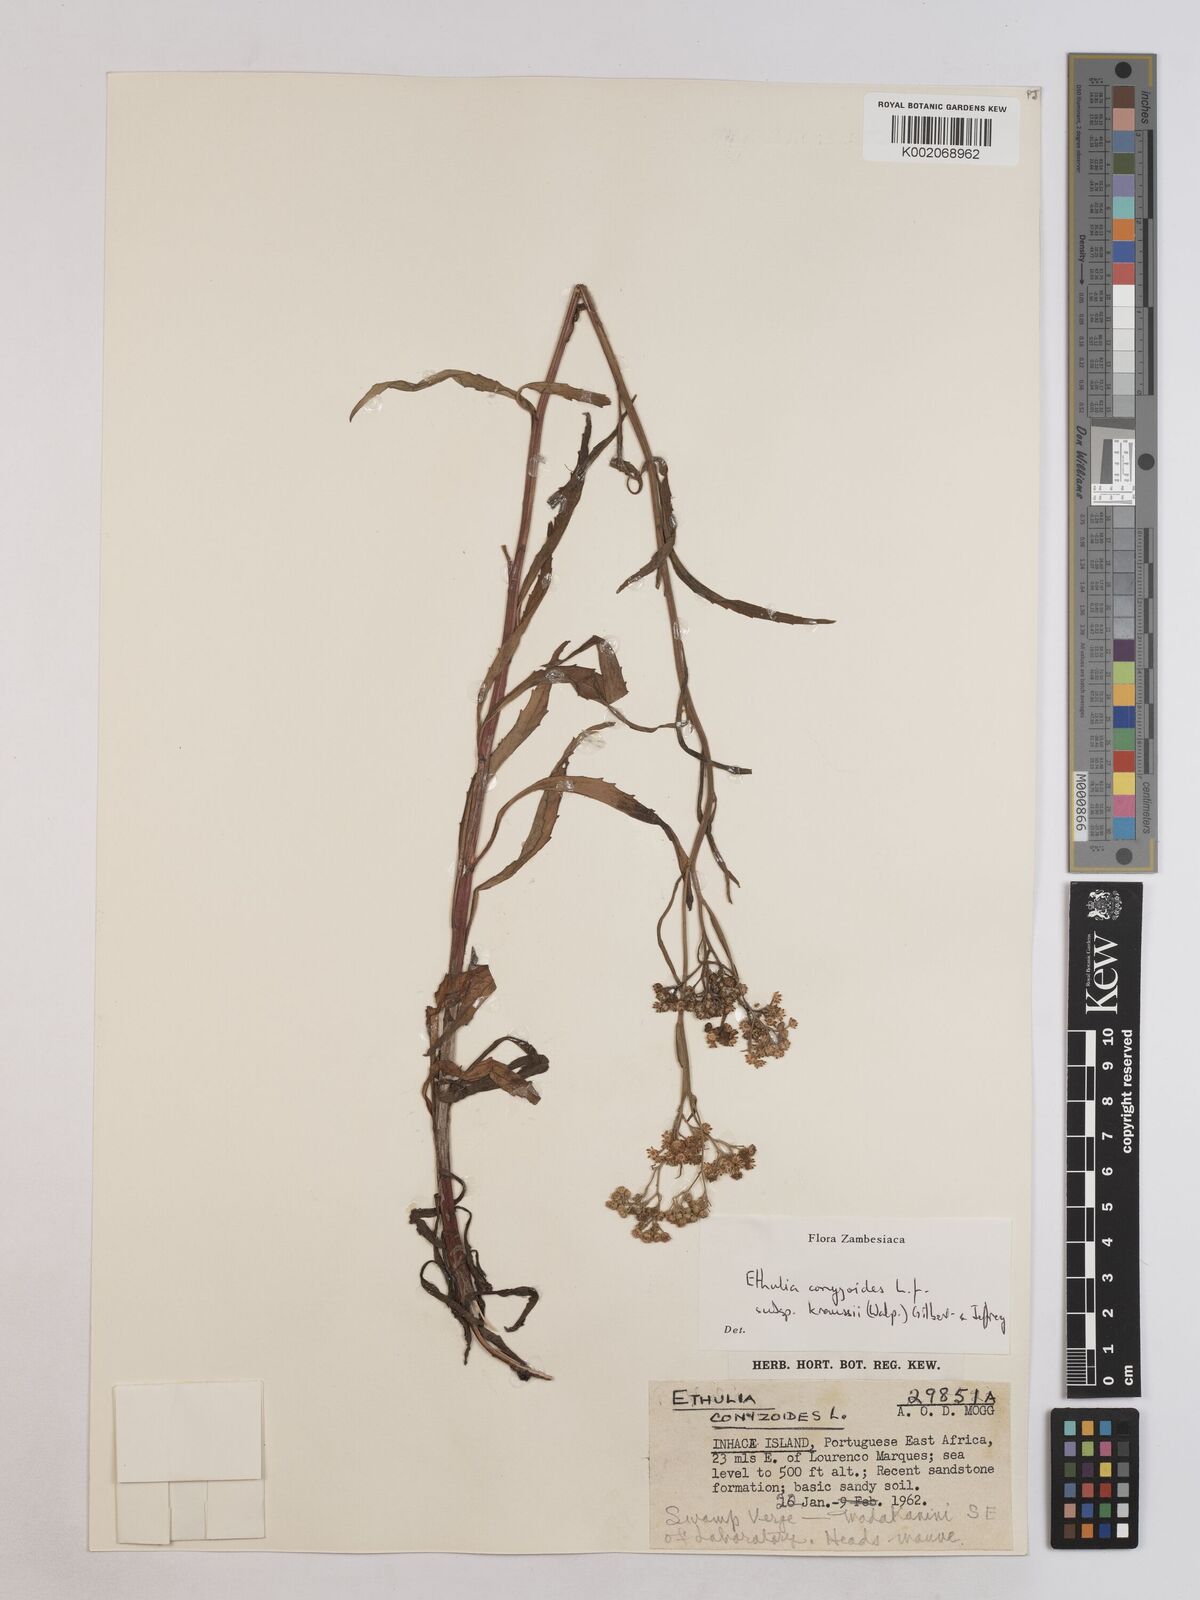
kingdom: Plantae
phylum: Tracheophyta
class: Magnoliopsida
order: Asterales
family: Asteraceae
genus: Ethulia
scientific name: Ethulia conyzoides
